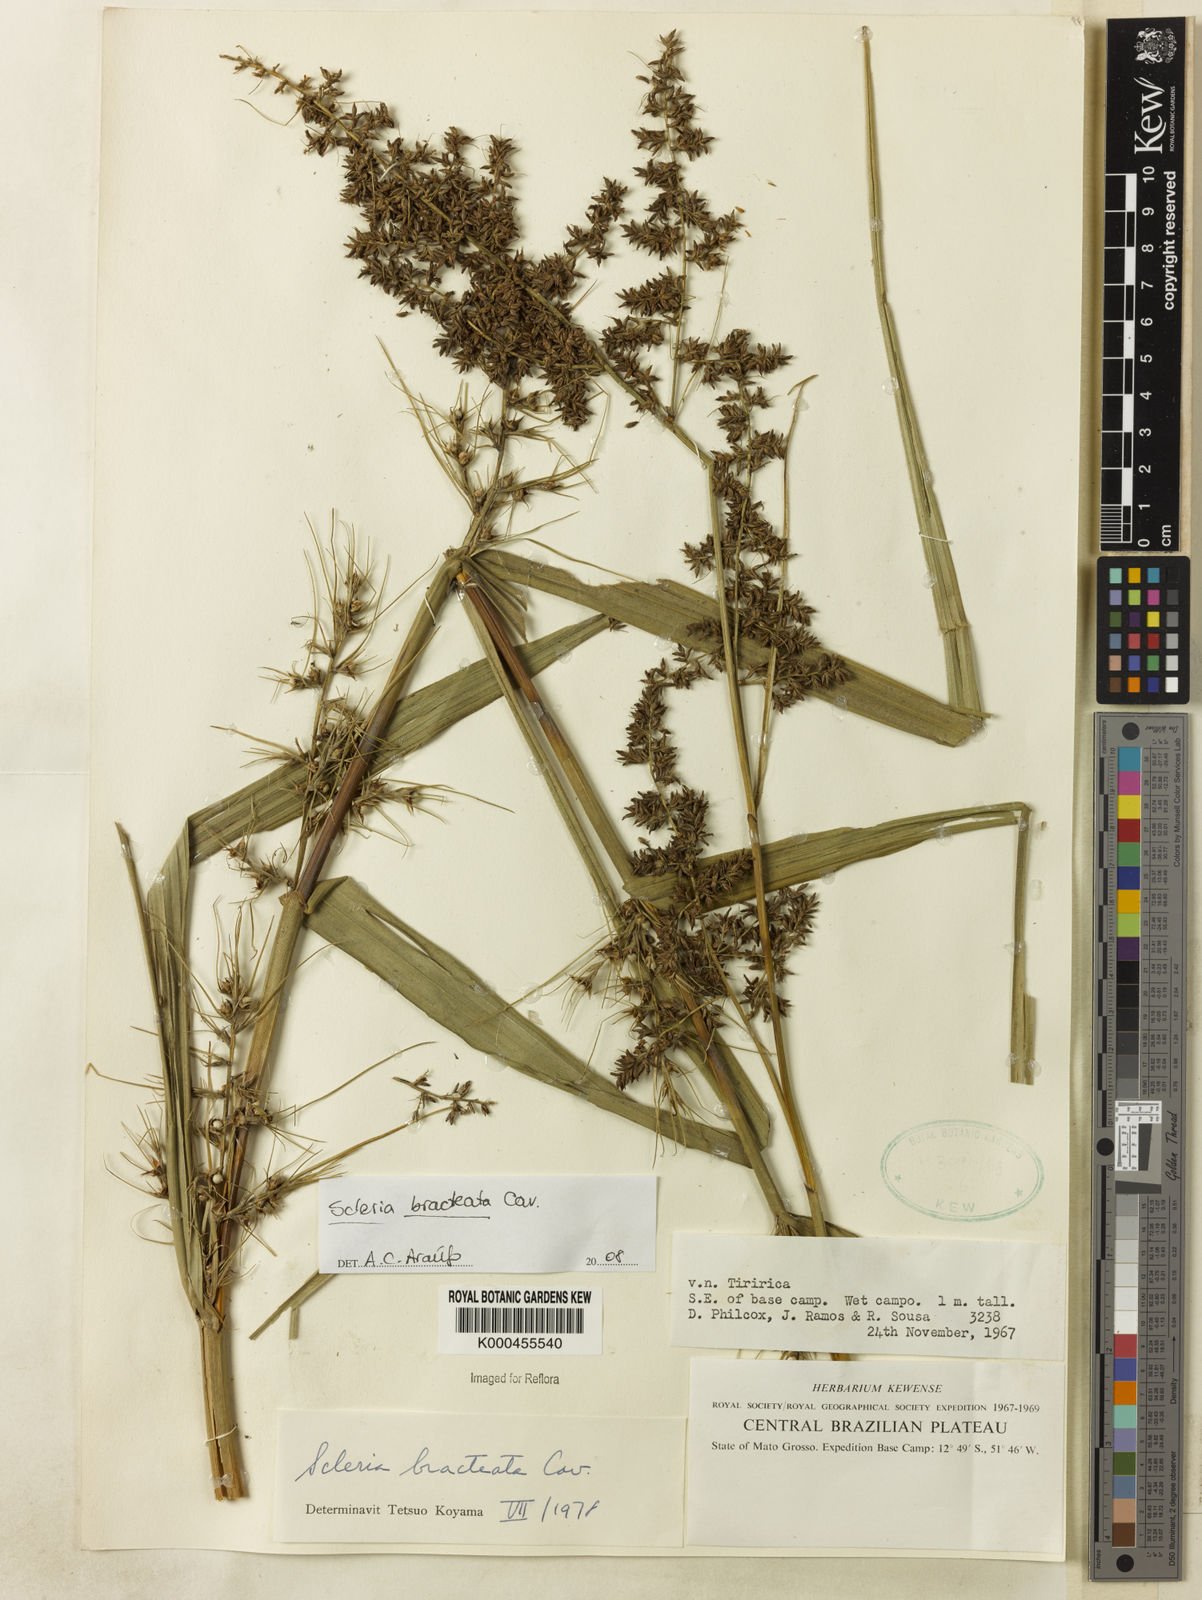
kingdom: Plantae
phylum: Tracheophyta
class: Liliopsida
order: Poales
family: Cyperaceae
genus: Scleria
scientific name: Scleria bracteata
